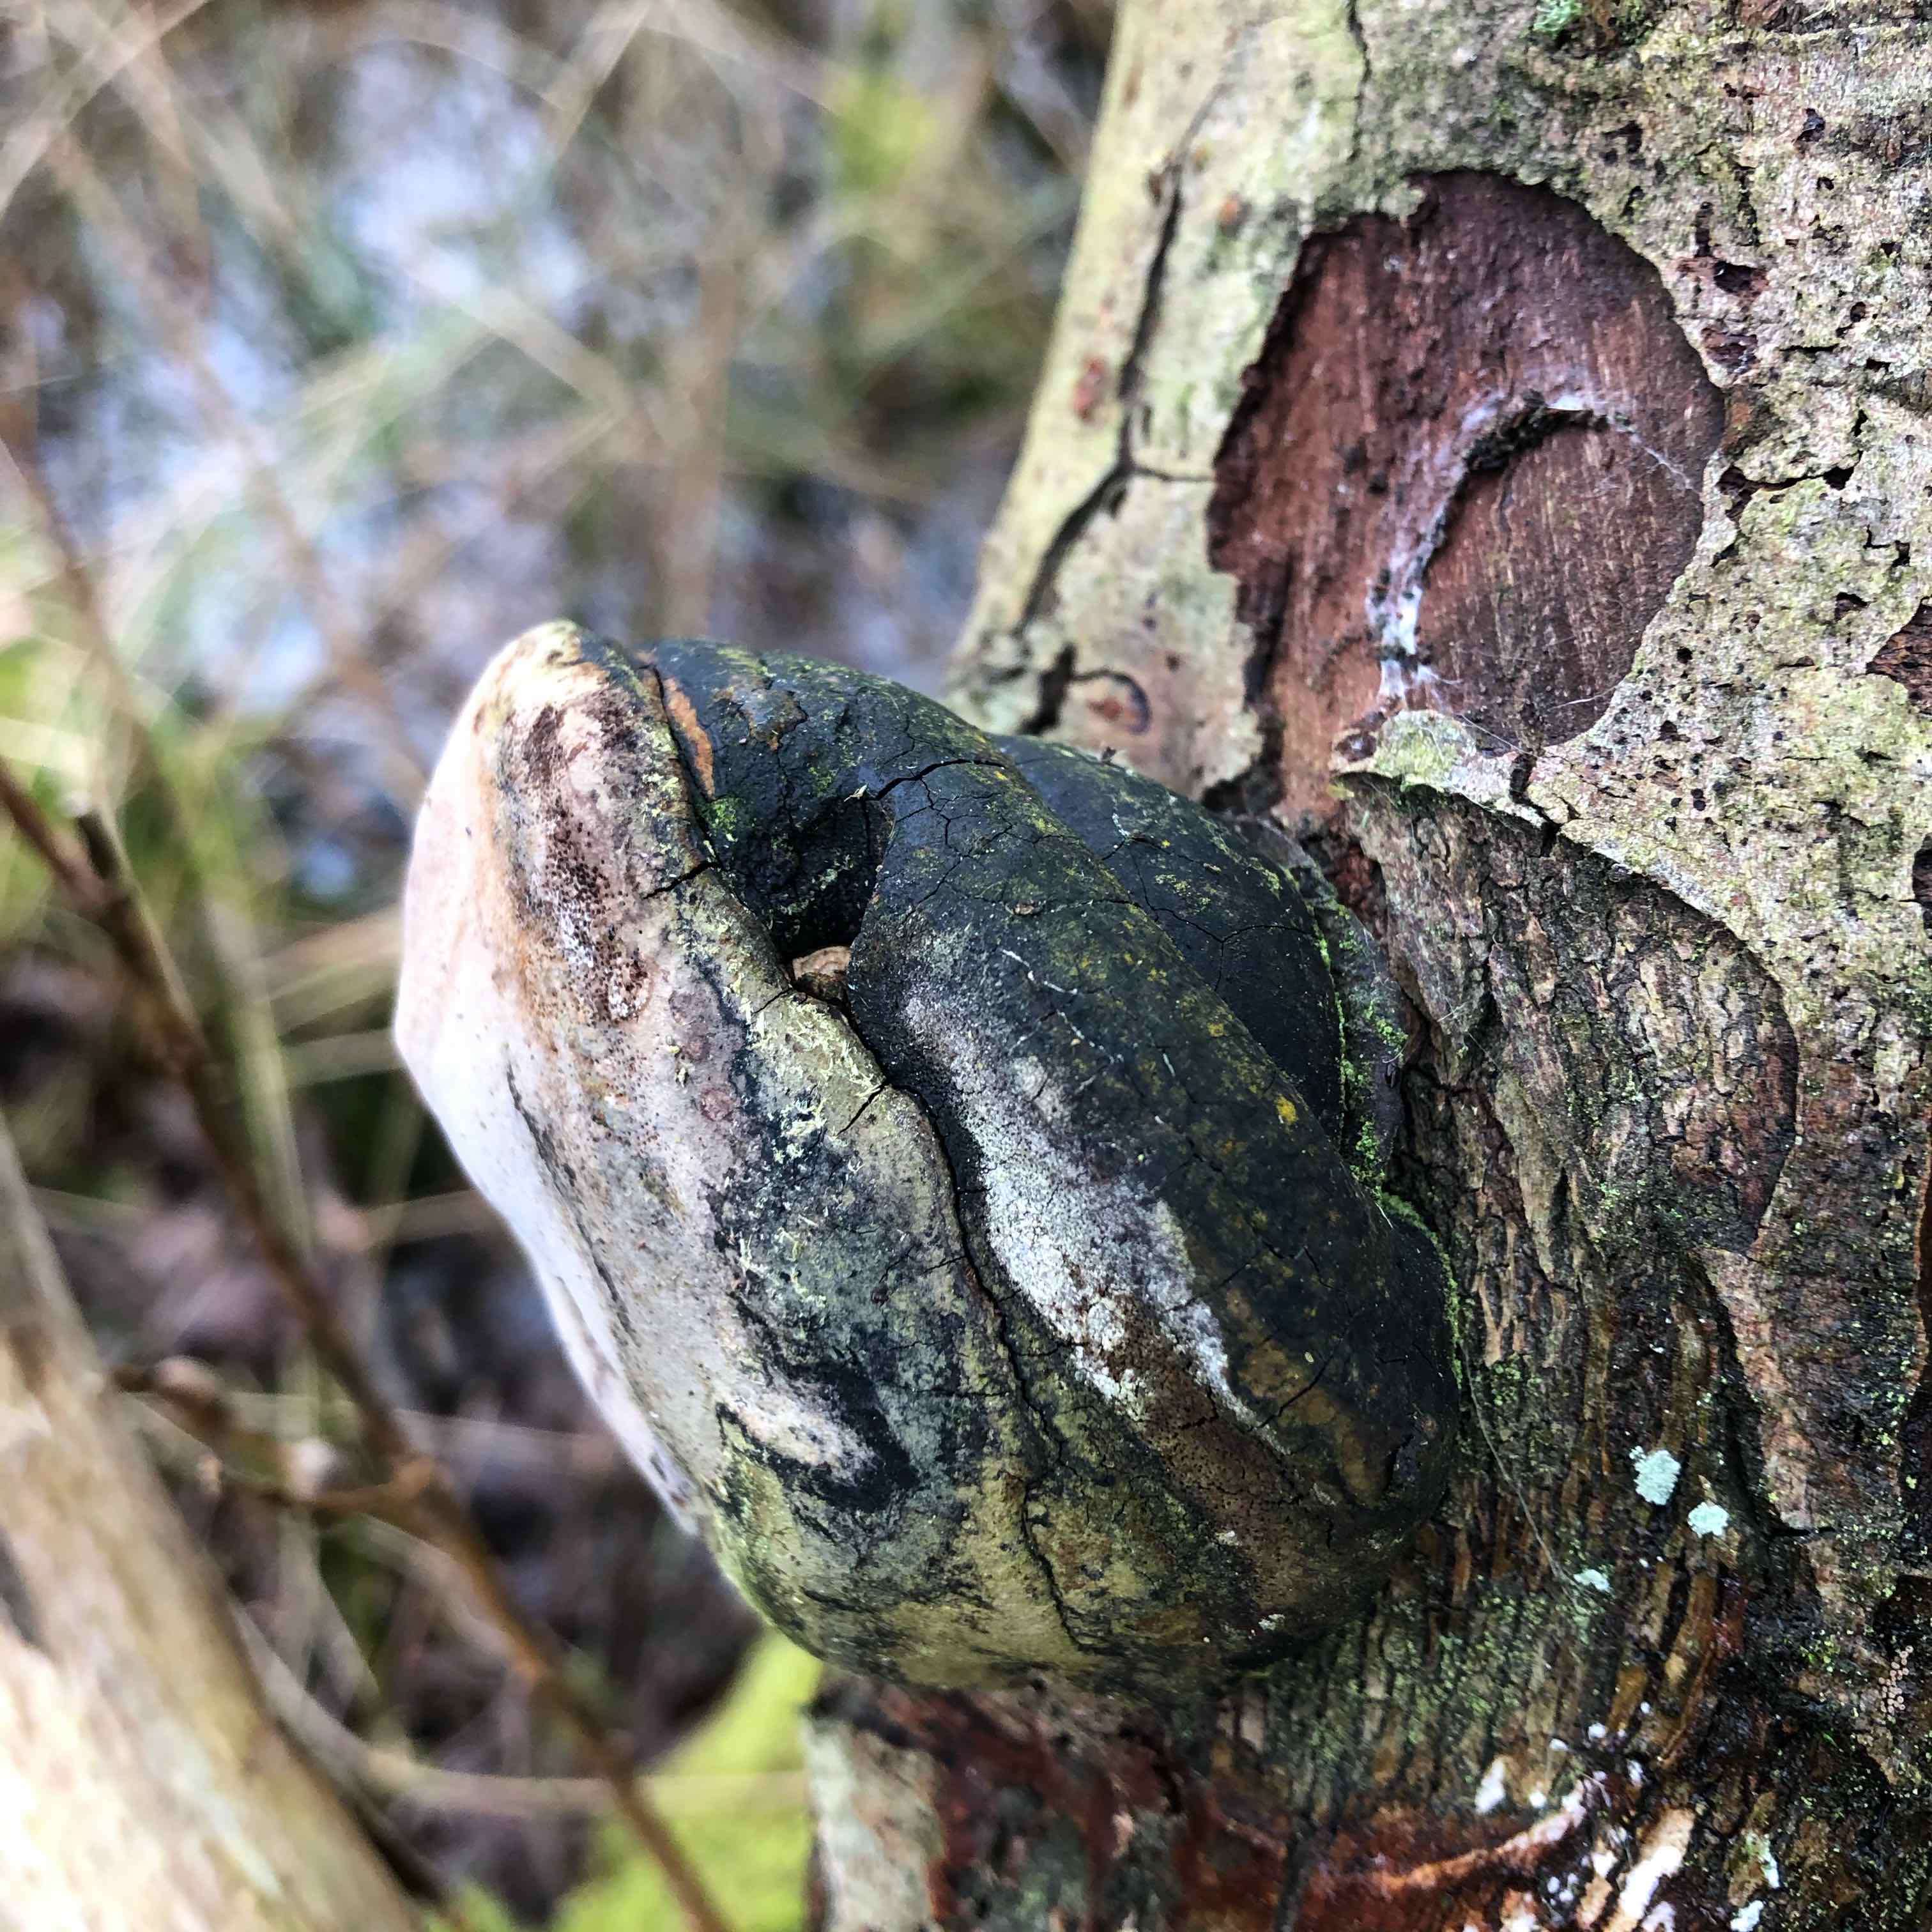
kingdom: Fungi
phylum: Basidiomycota
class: Agaricomycetes
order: Hymenochaetales
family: Hymenochaetaceae
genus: Phellinus
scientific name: Phellinus igniarius
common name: almindelig ildporesvamp
